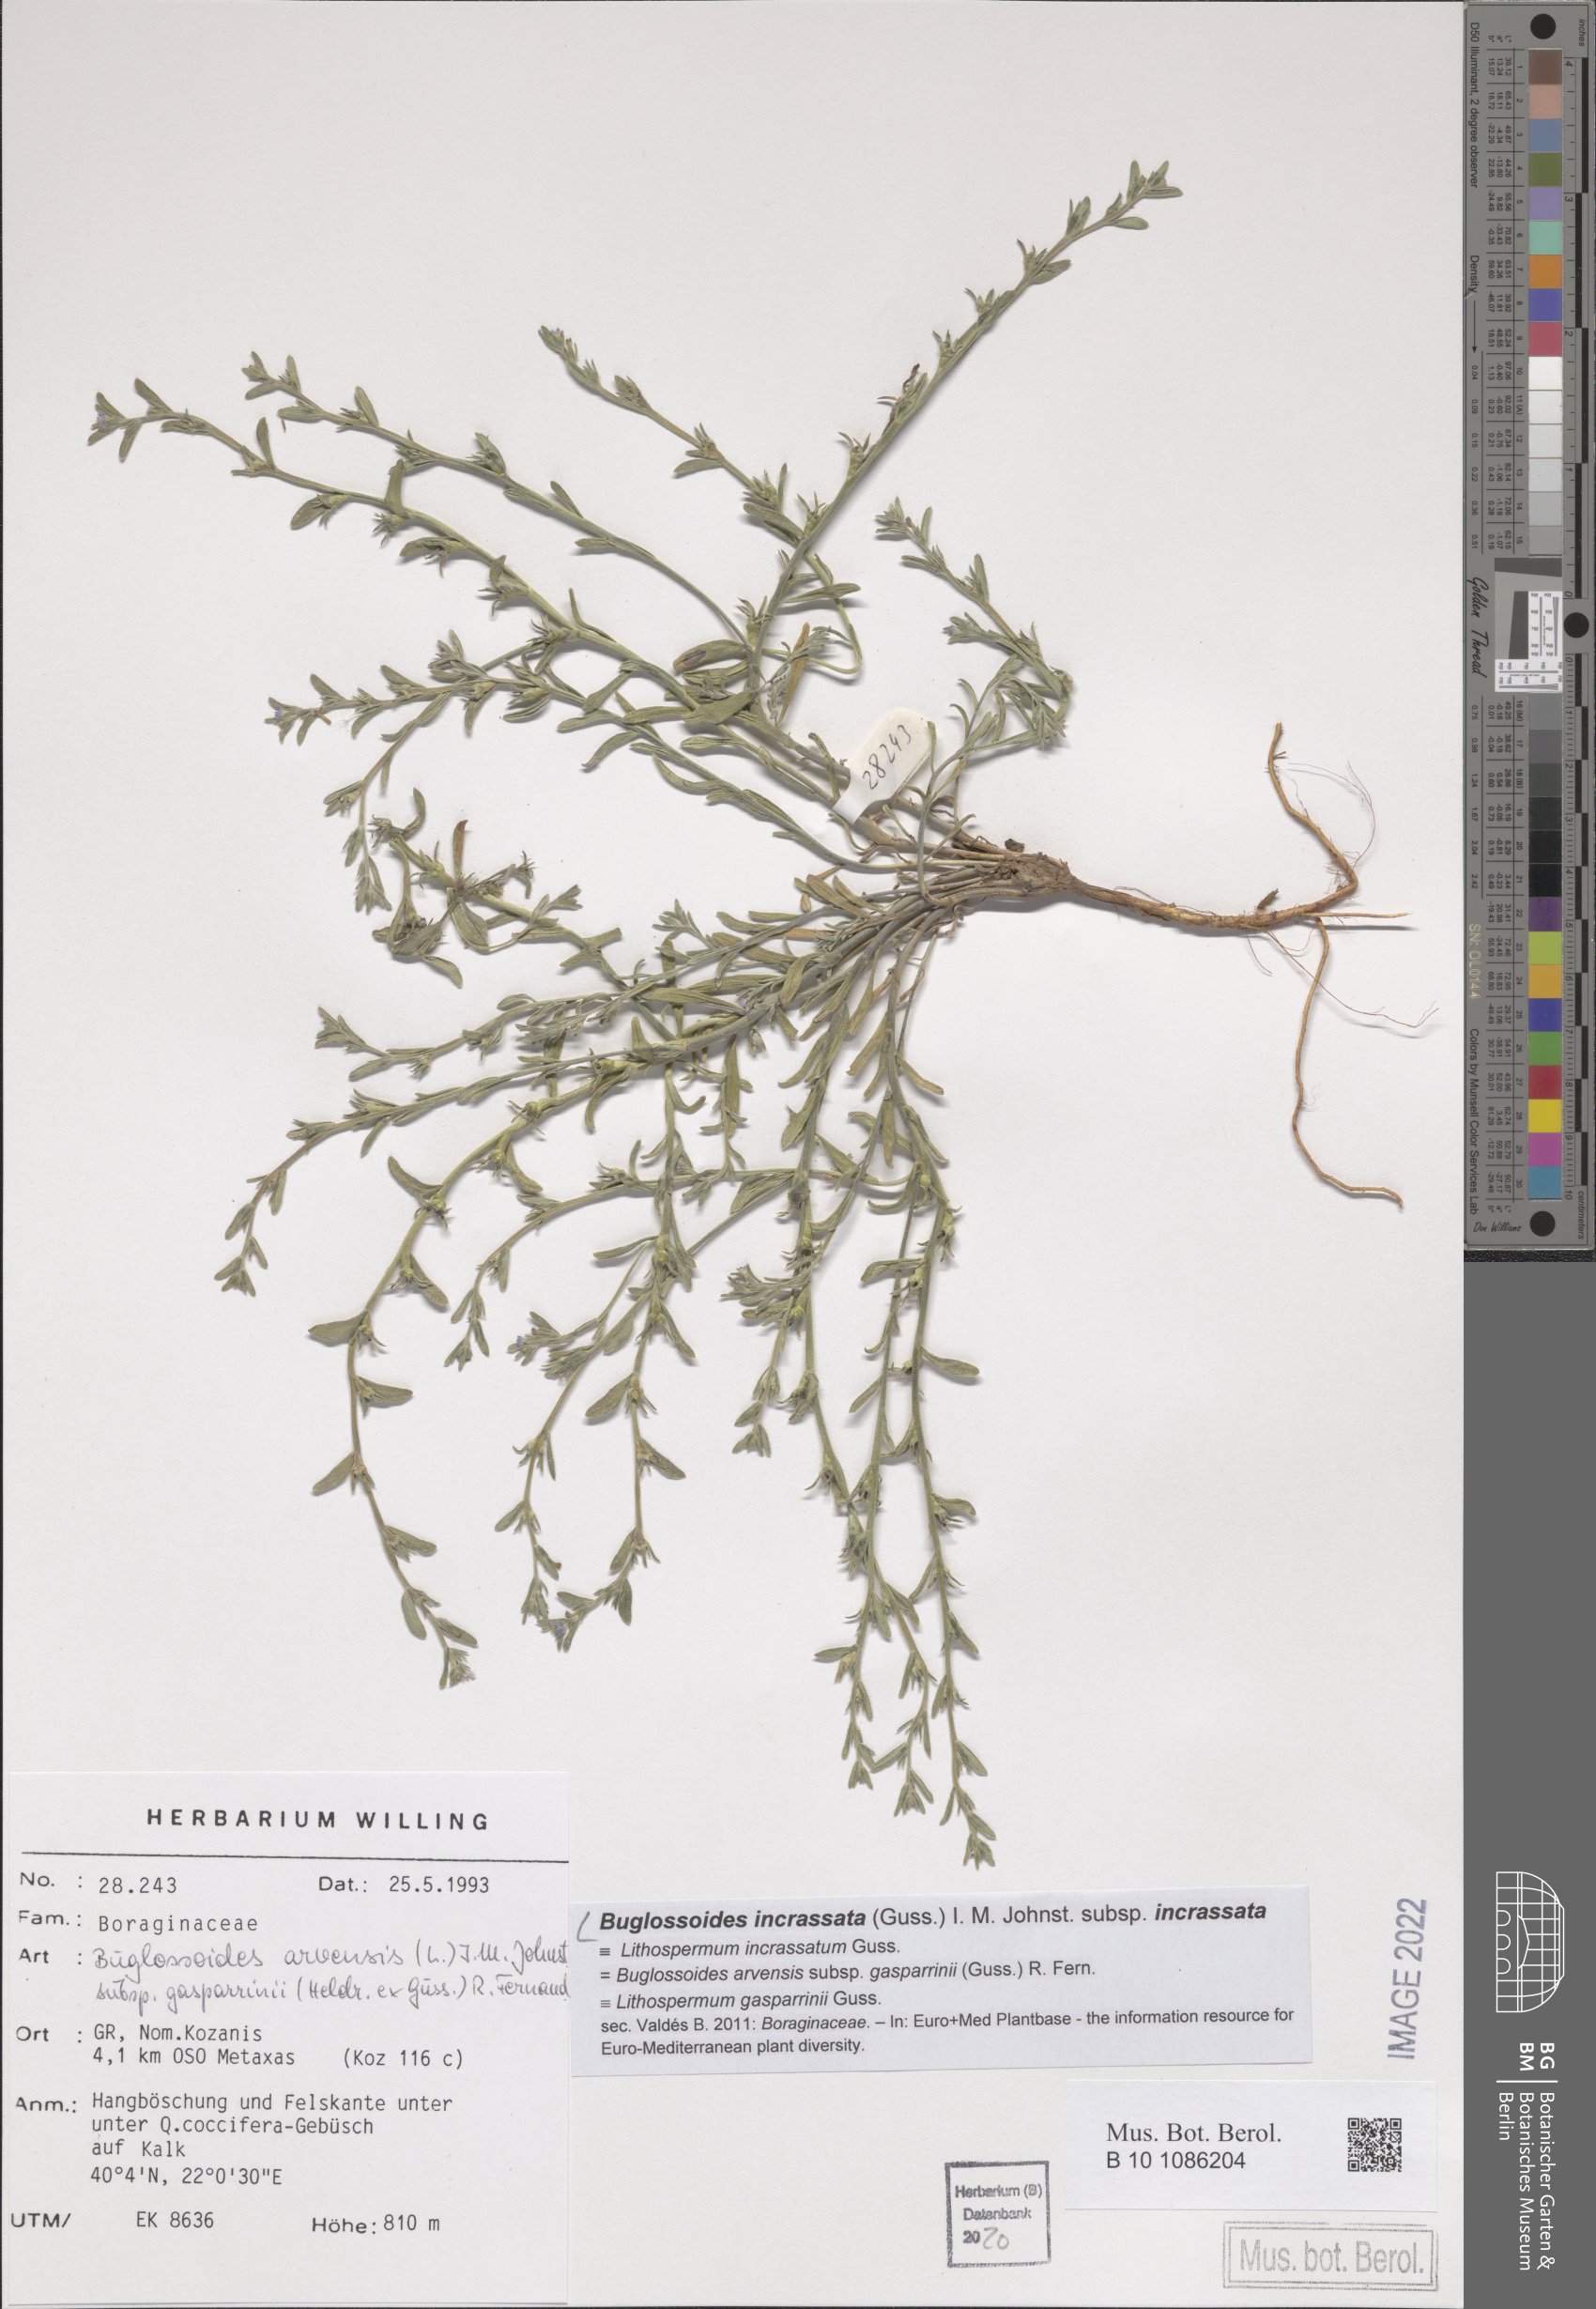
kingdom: Plantae
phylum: Tracheophyta
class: Magnoliopsida
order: Boraginales
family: Boraginaceae
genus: Buglossoides
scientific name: Buglossoides incrassata
